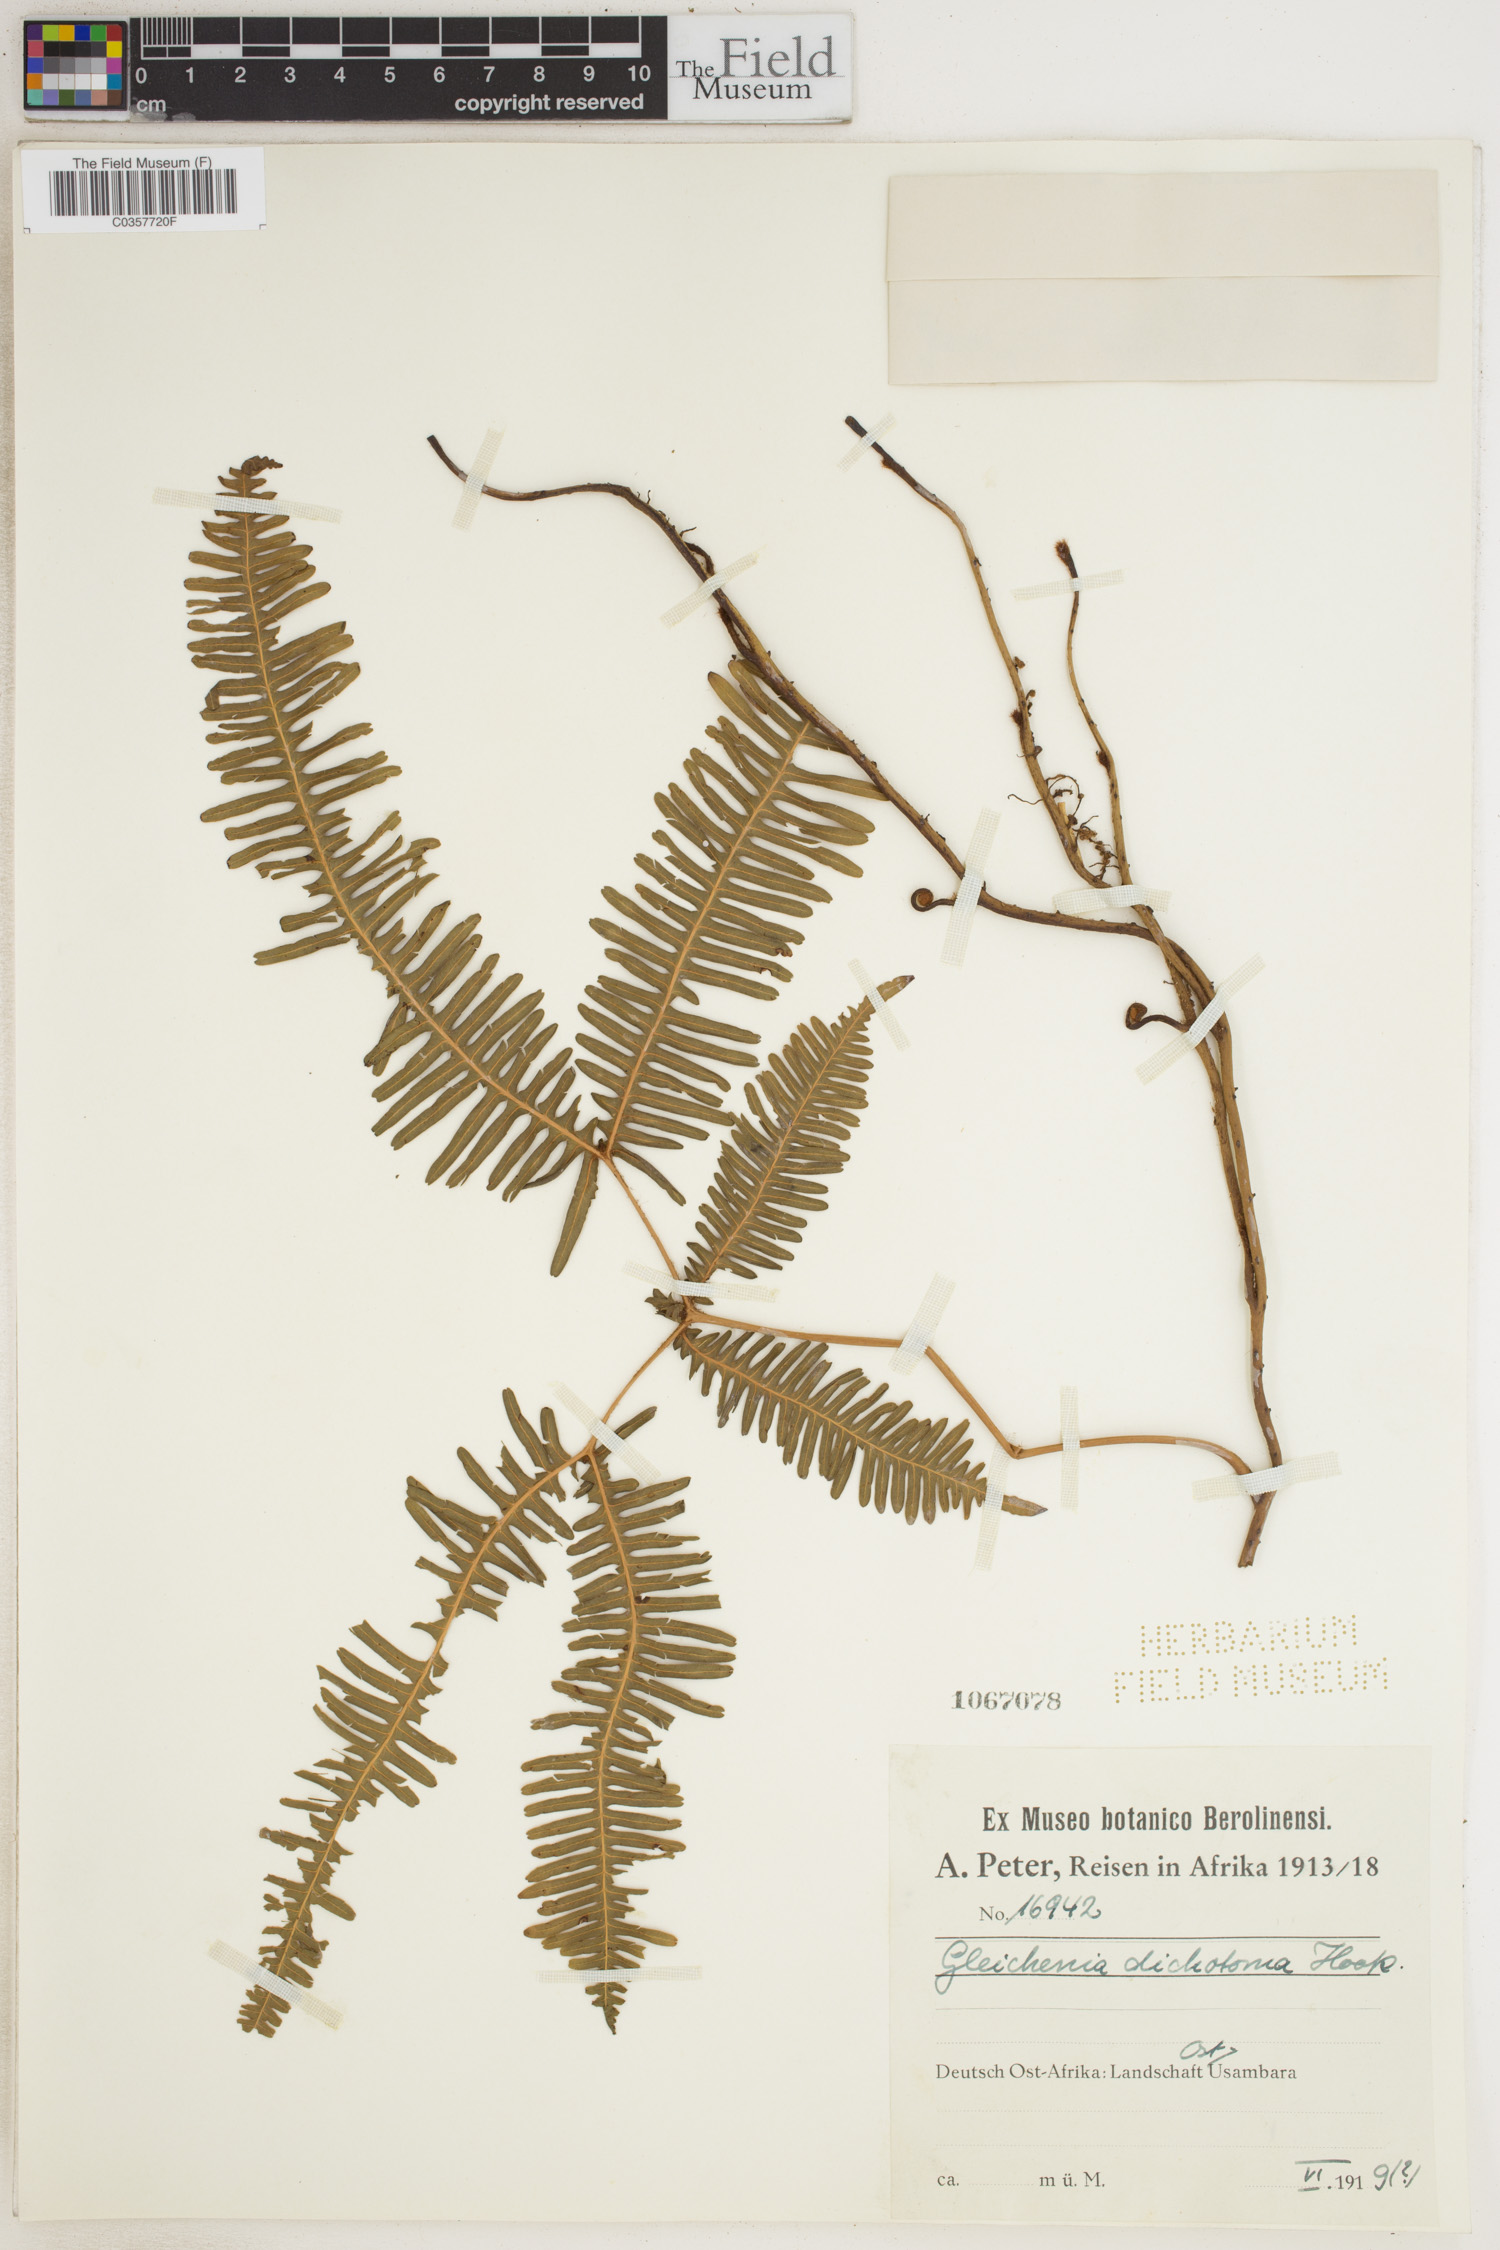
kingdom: Plantae
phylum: Tracheophyta
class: Polypodiopsida
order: Gleicheniales
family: Gleicheniaceae
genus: Dicranopteris
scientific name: Dicranopteris pedata
